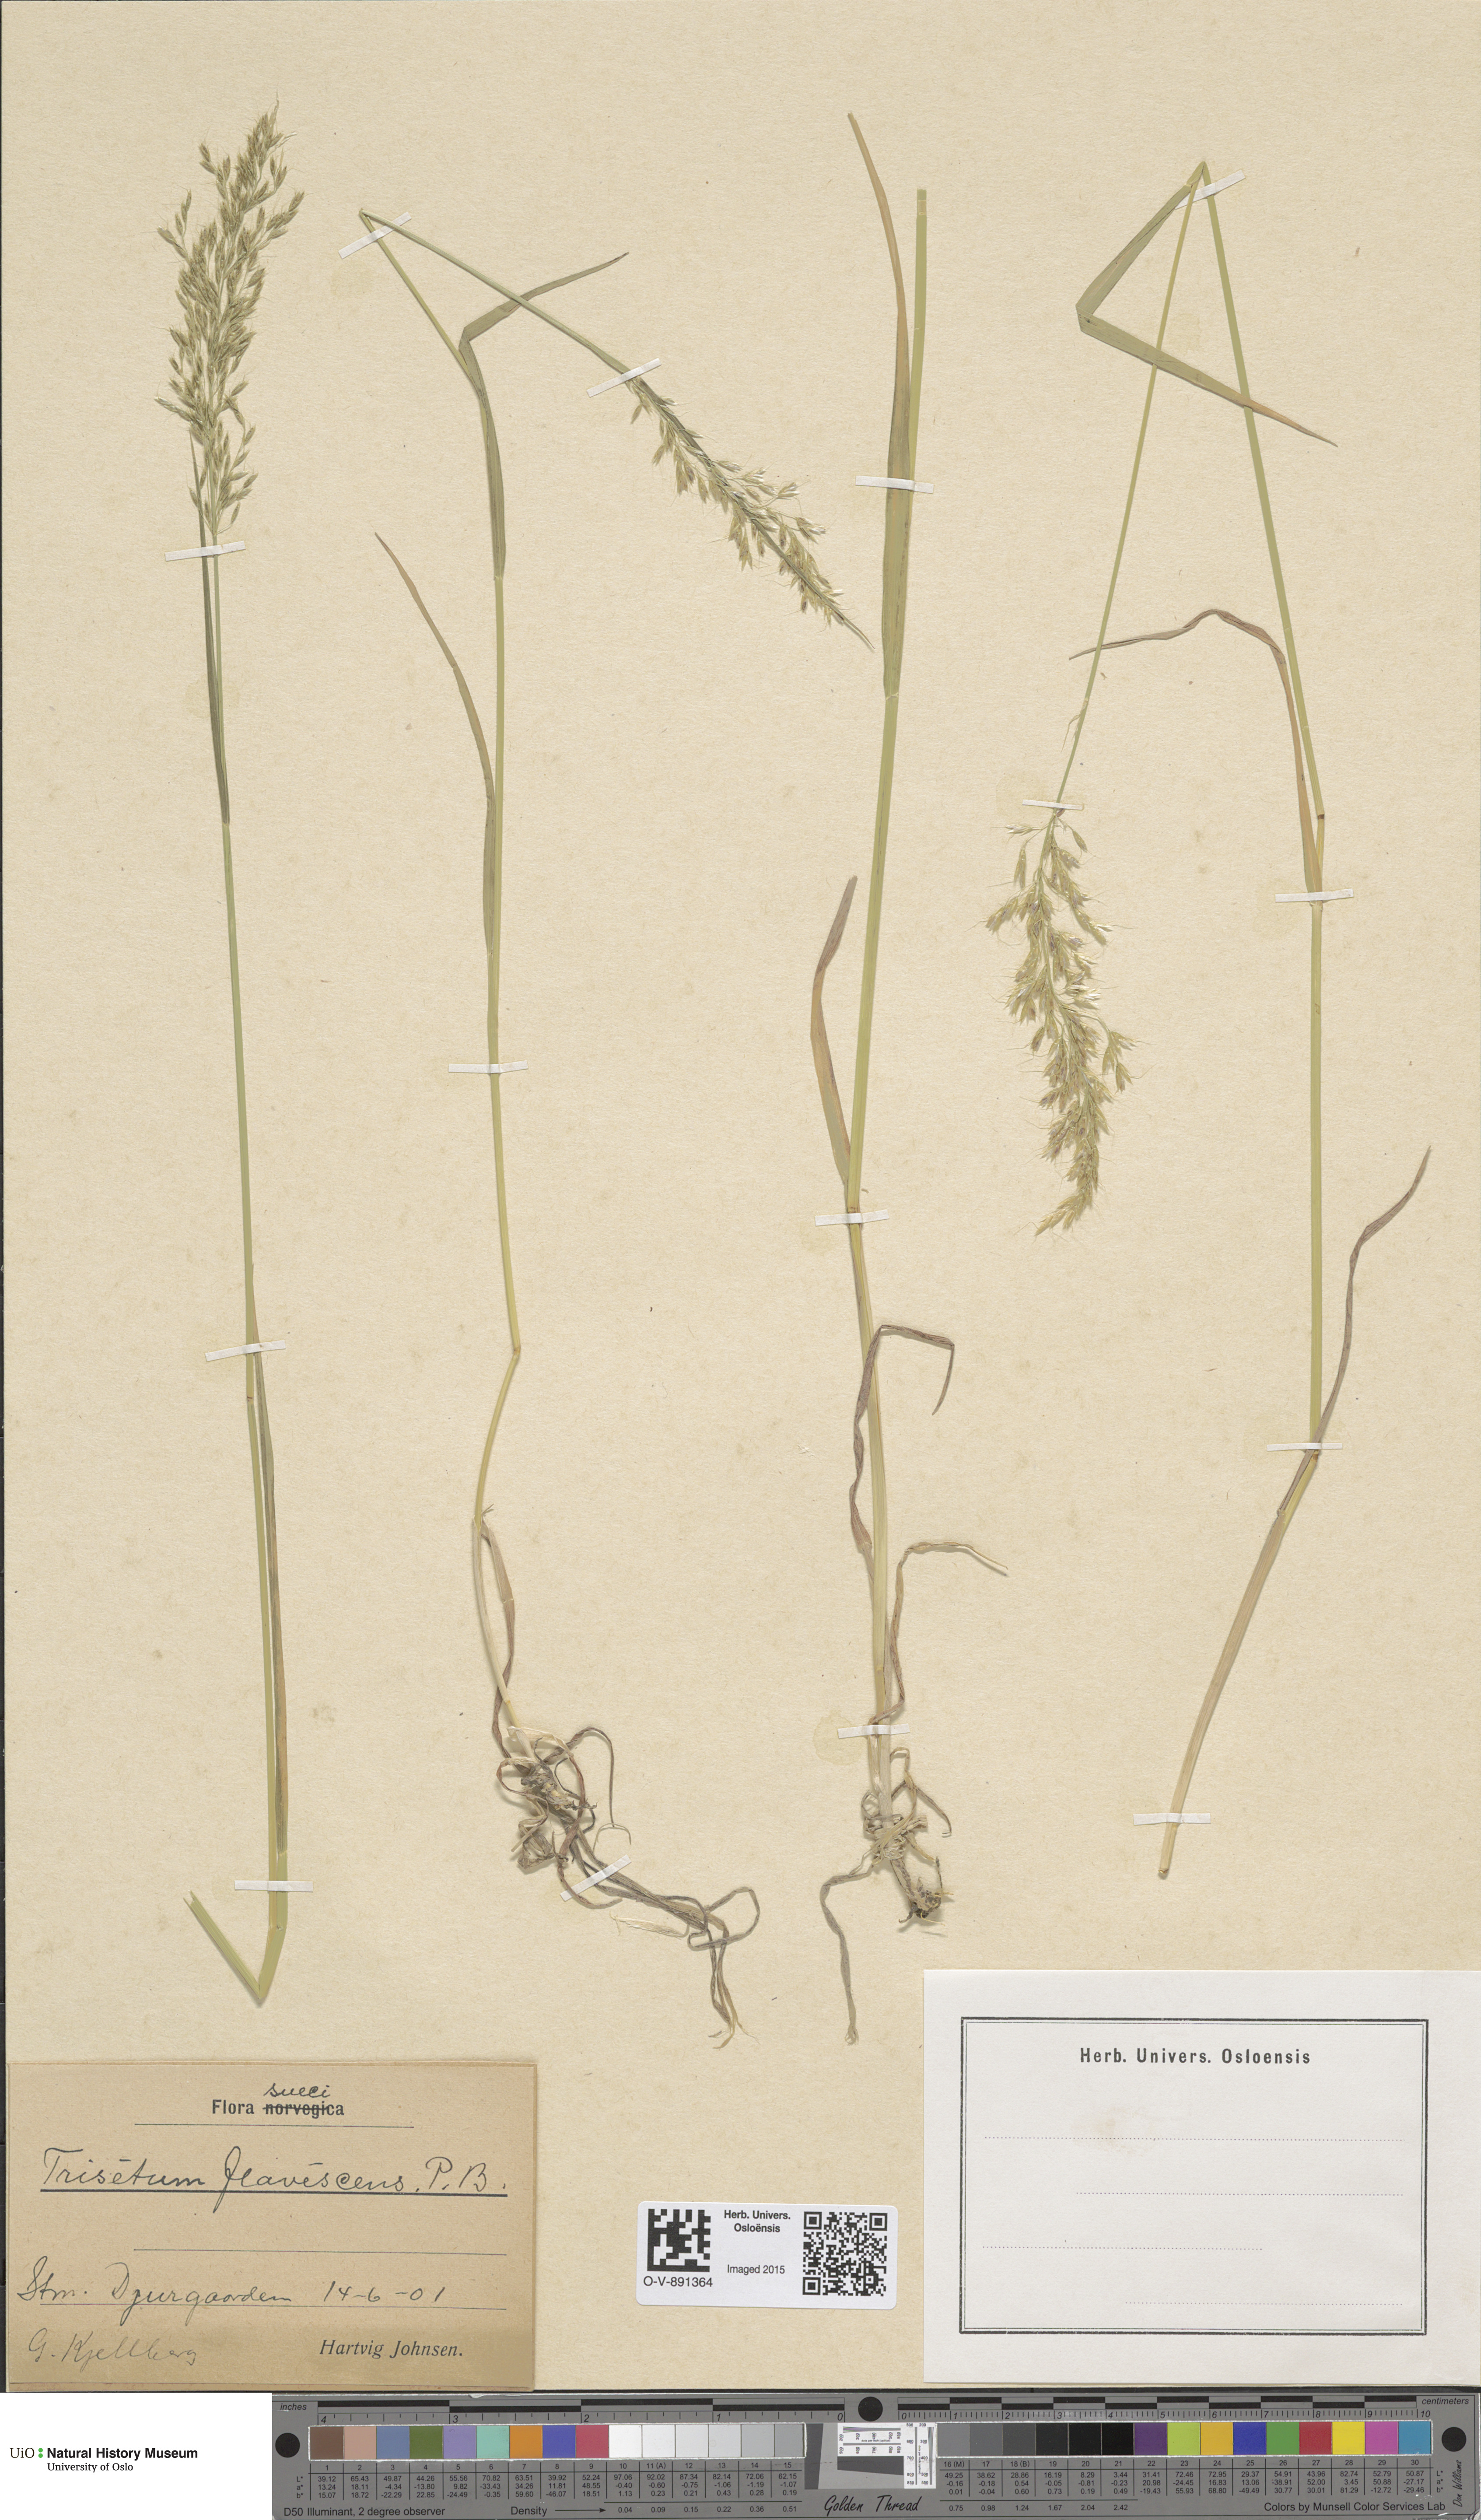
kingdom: Plantae
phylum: Tracheophyta
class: Liliopsida
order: Poales
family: Poaceae
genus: Trisetum
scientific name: Trisetum flavescens
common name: Yellow oat-grass
